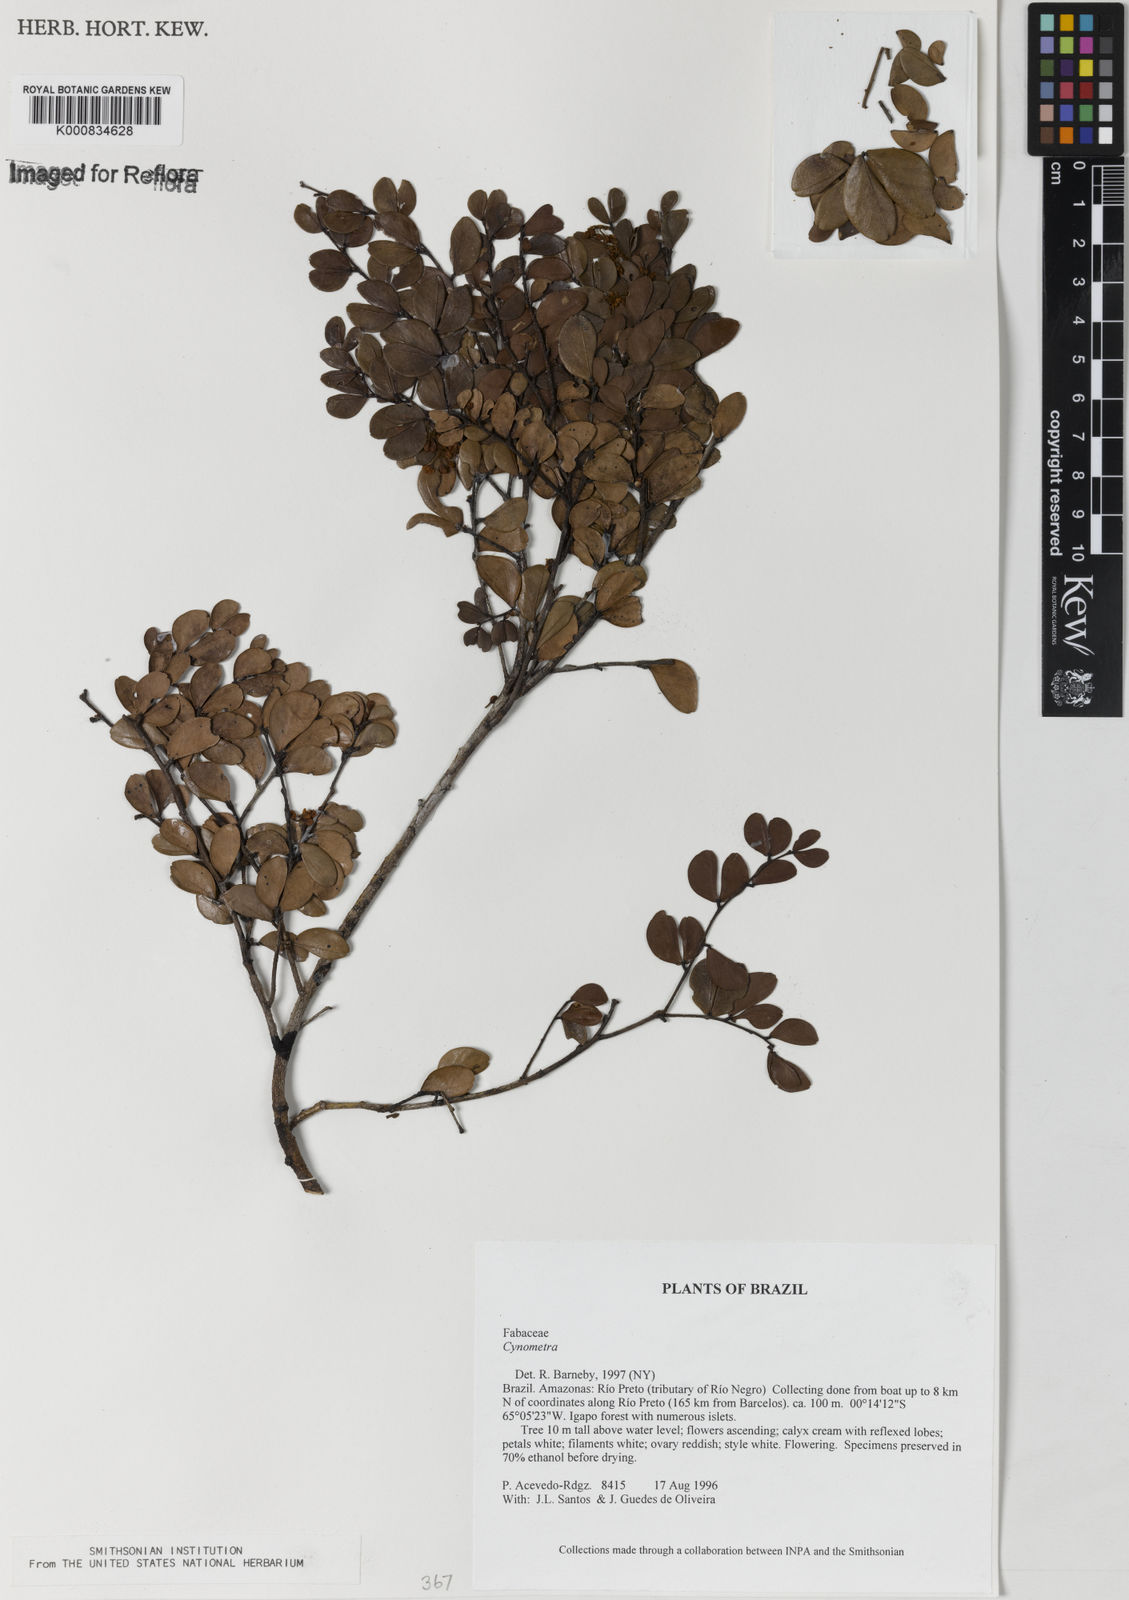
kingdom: Plantae
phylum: Tracheophyta
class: Magnoliopsida
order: Fabales
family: Fabaceae
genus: Cynometra
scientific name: Cynometra duckei
